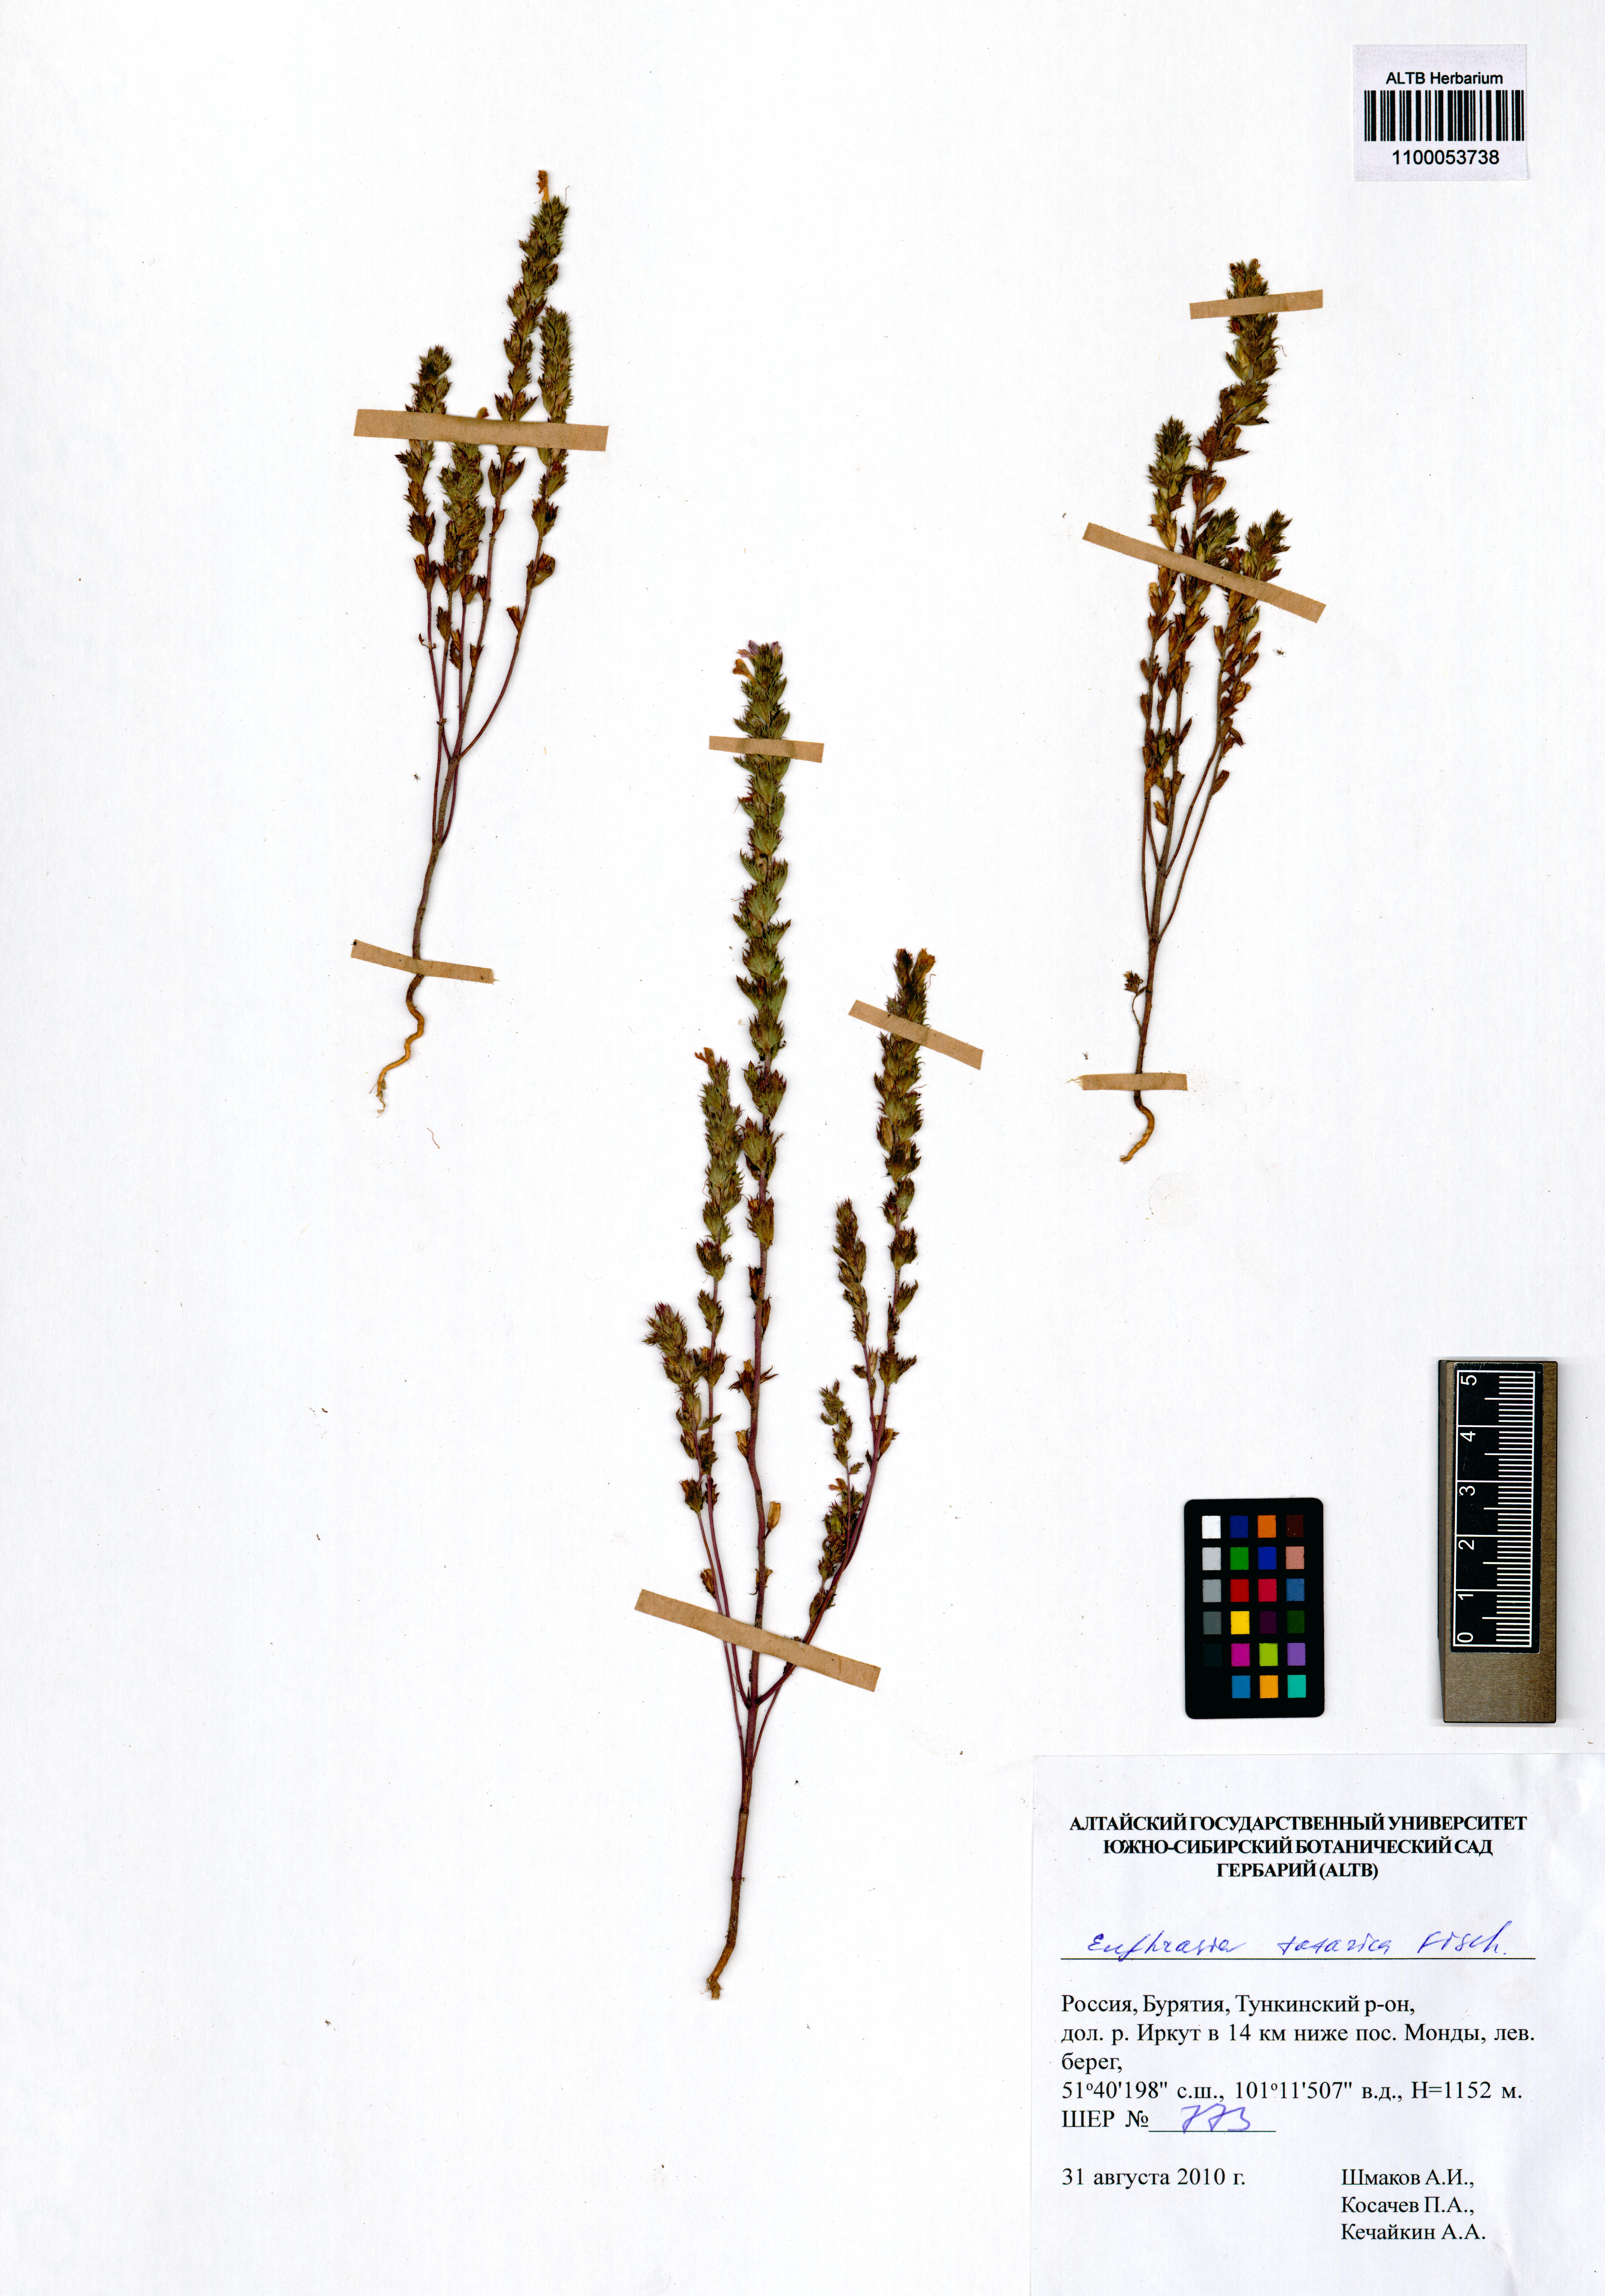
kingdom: Plantae
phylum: Tracheophyta
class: Magnoliopsida
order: Lamiales
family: Orobanchaceae
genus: Euphrasia
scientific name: Euphrasia pectinata
